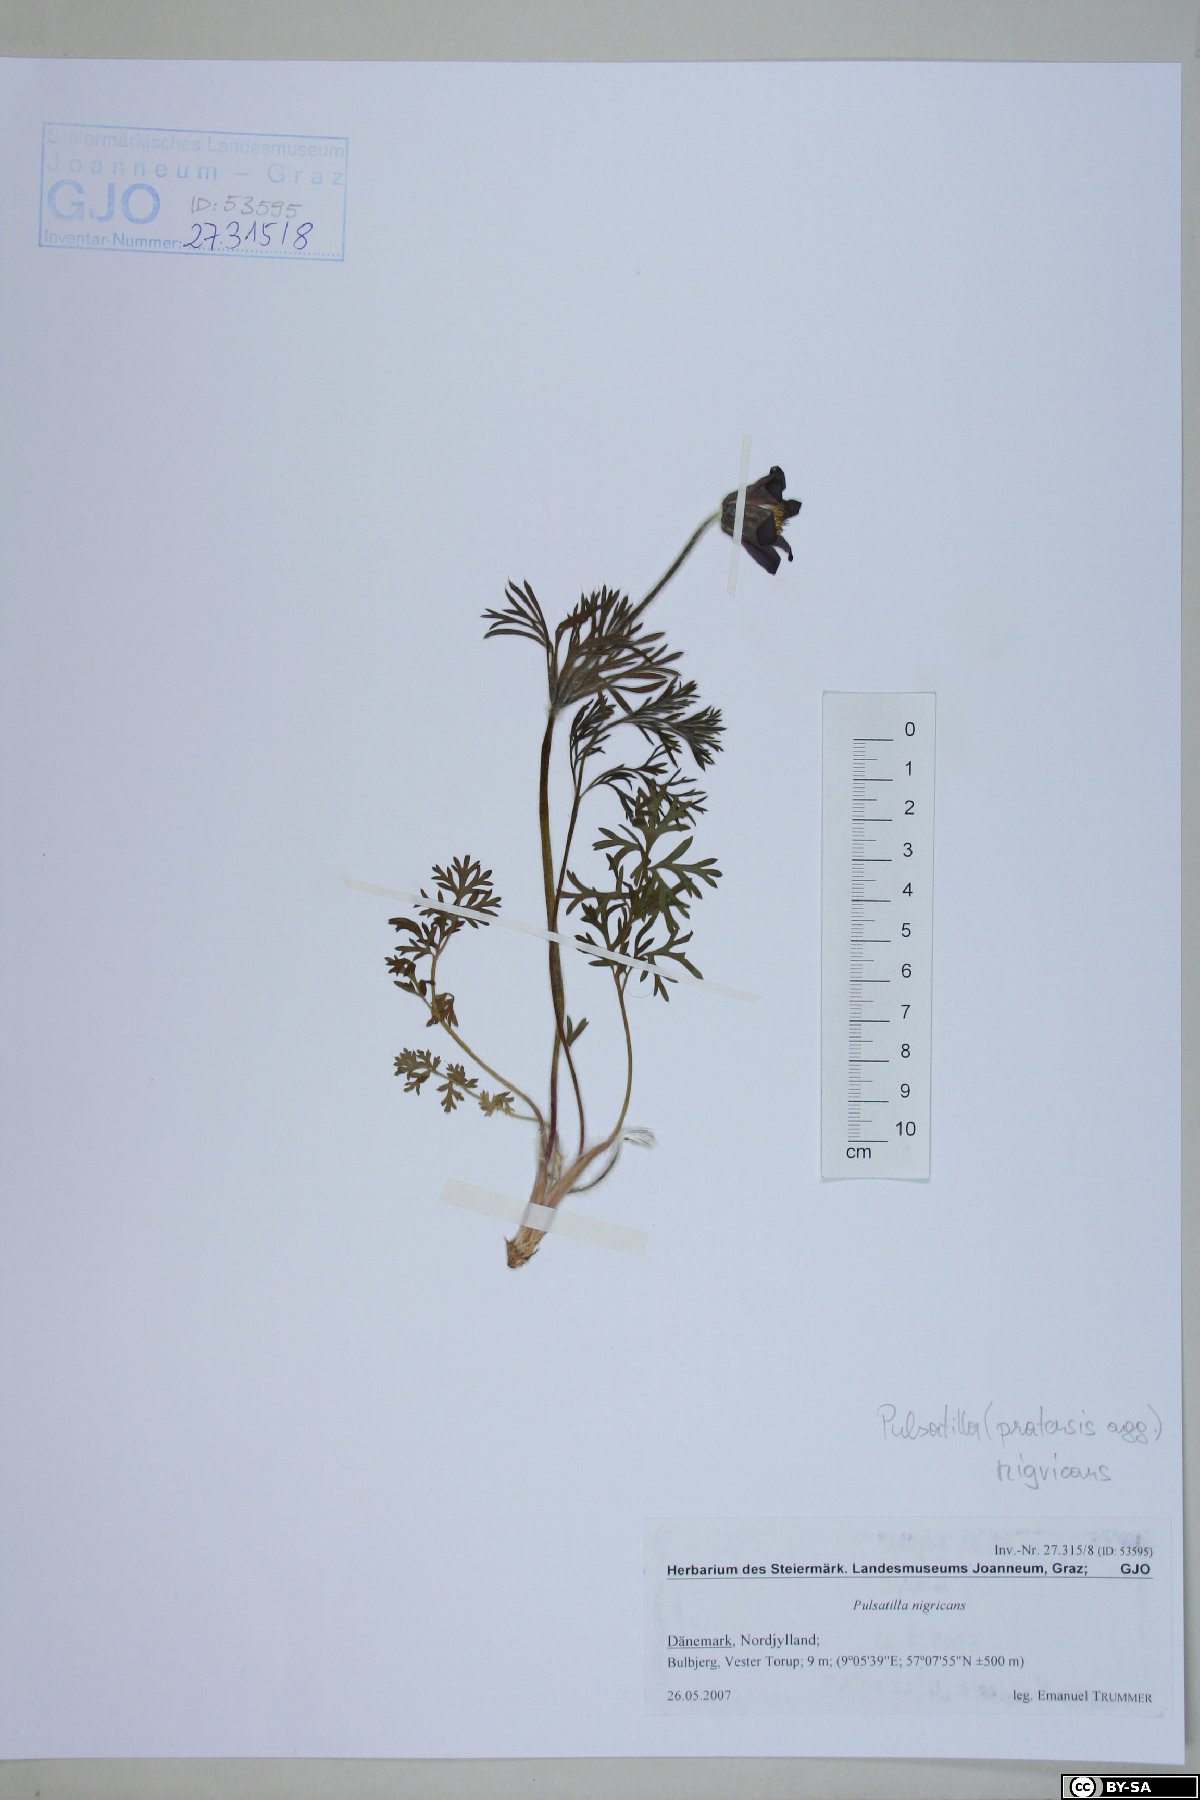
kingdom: Plantae
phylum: Tracheophyta
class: Magnoliopsida
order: Ranunculales
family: Ranunculaceae
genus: Pulsatilla
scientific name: Pulsatilla pratensis
